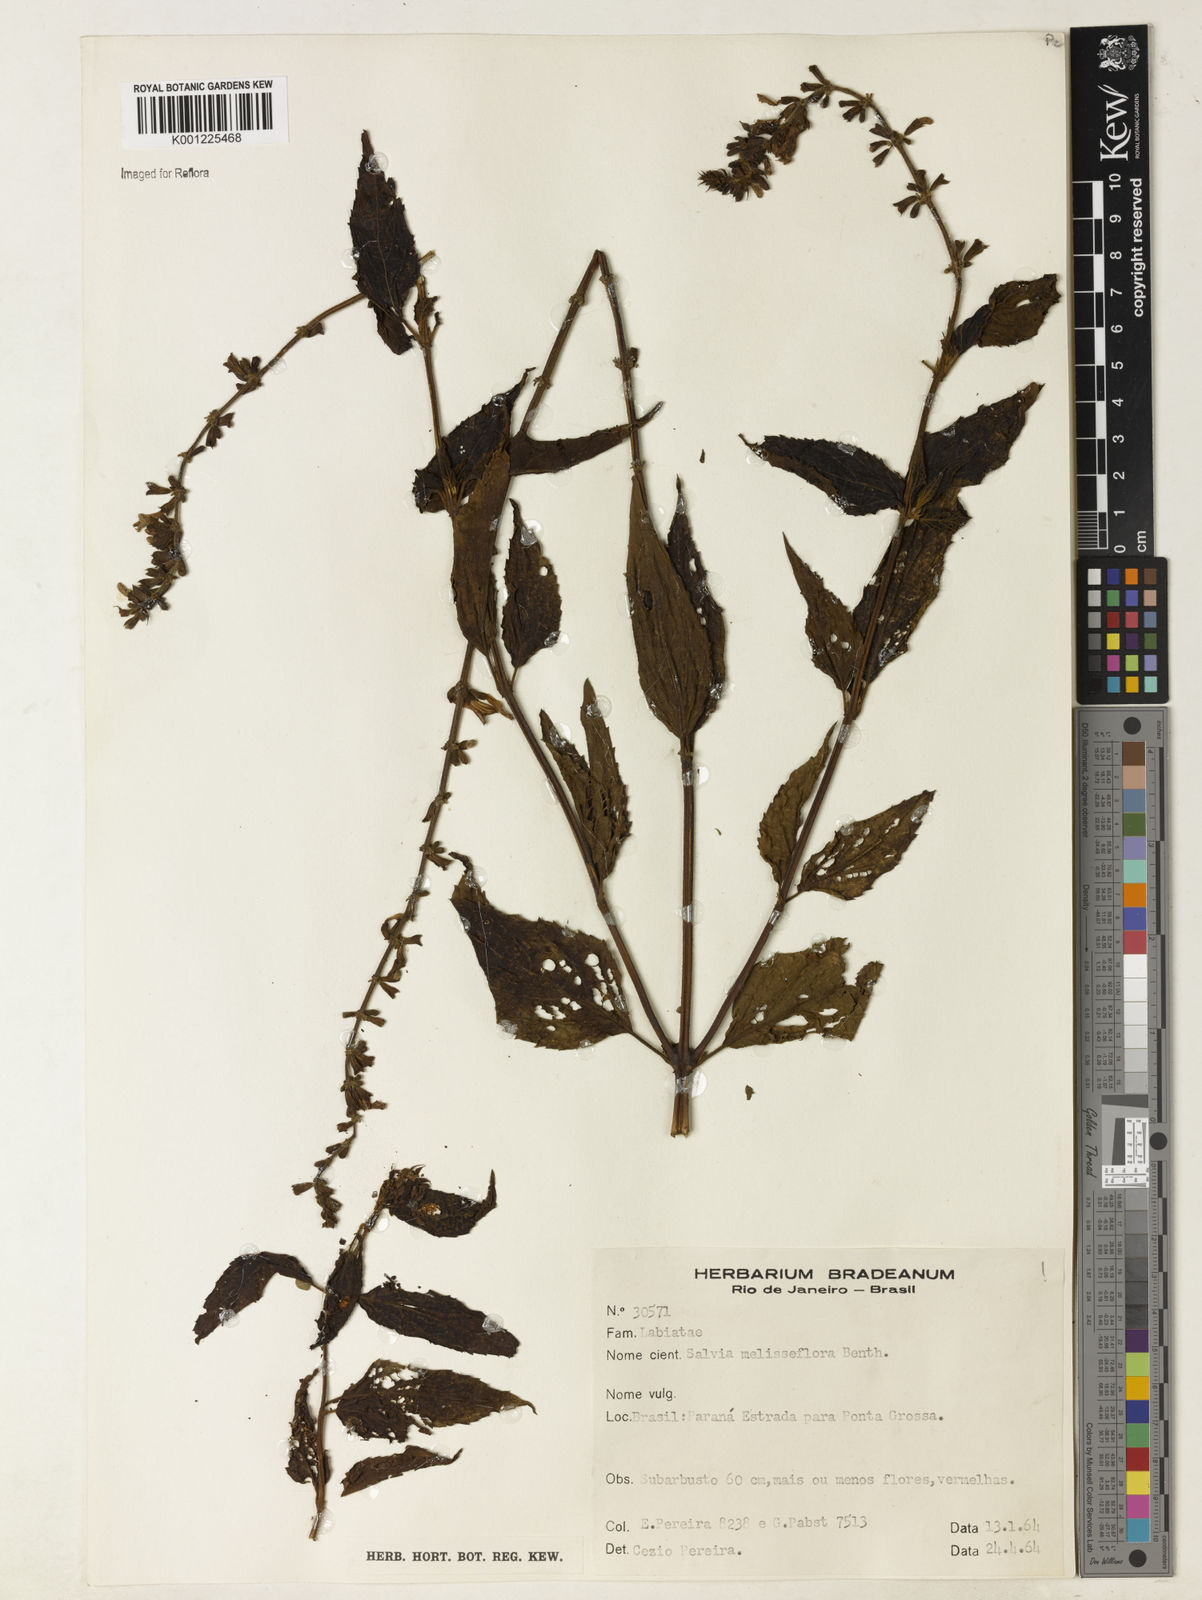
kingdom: Plantae
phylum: Tracheophyta
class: Magnoliopsida
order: Lamiales
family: Lamiaceae
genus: Salvia
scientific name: Salvia melissiflora
